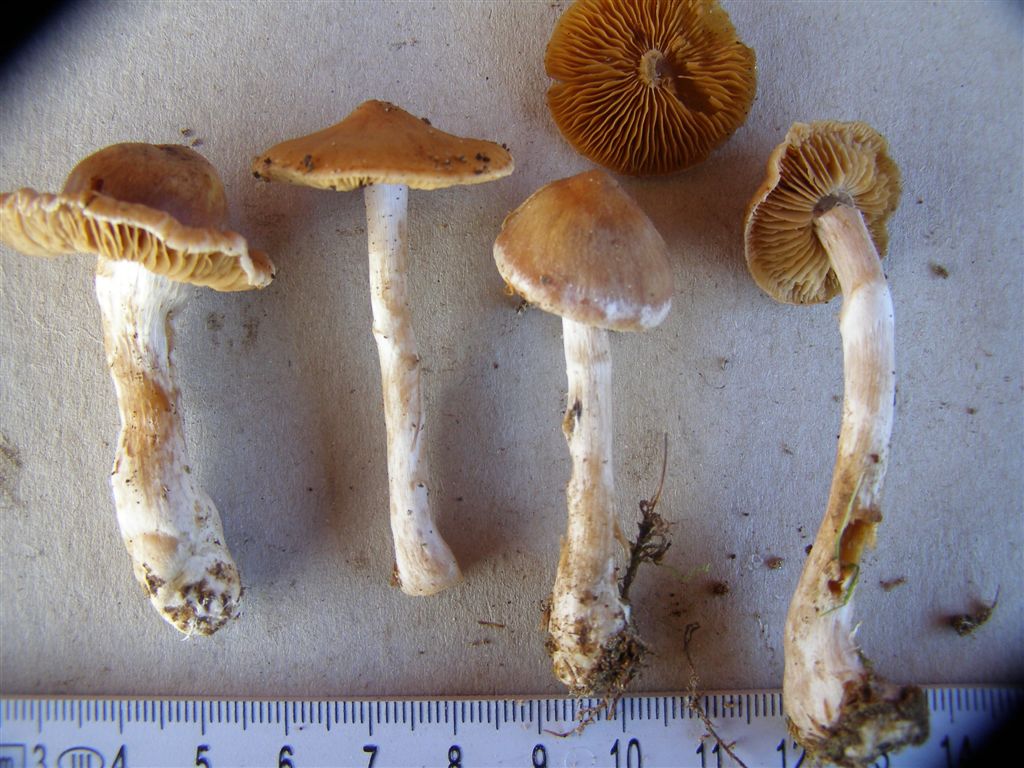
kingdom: Fungi
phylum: Basidiomycota
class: Agaricomycetes
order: Agaricales
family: Cortinariaceae
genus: Cortinarius
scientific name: Cortinarius circinans
